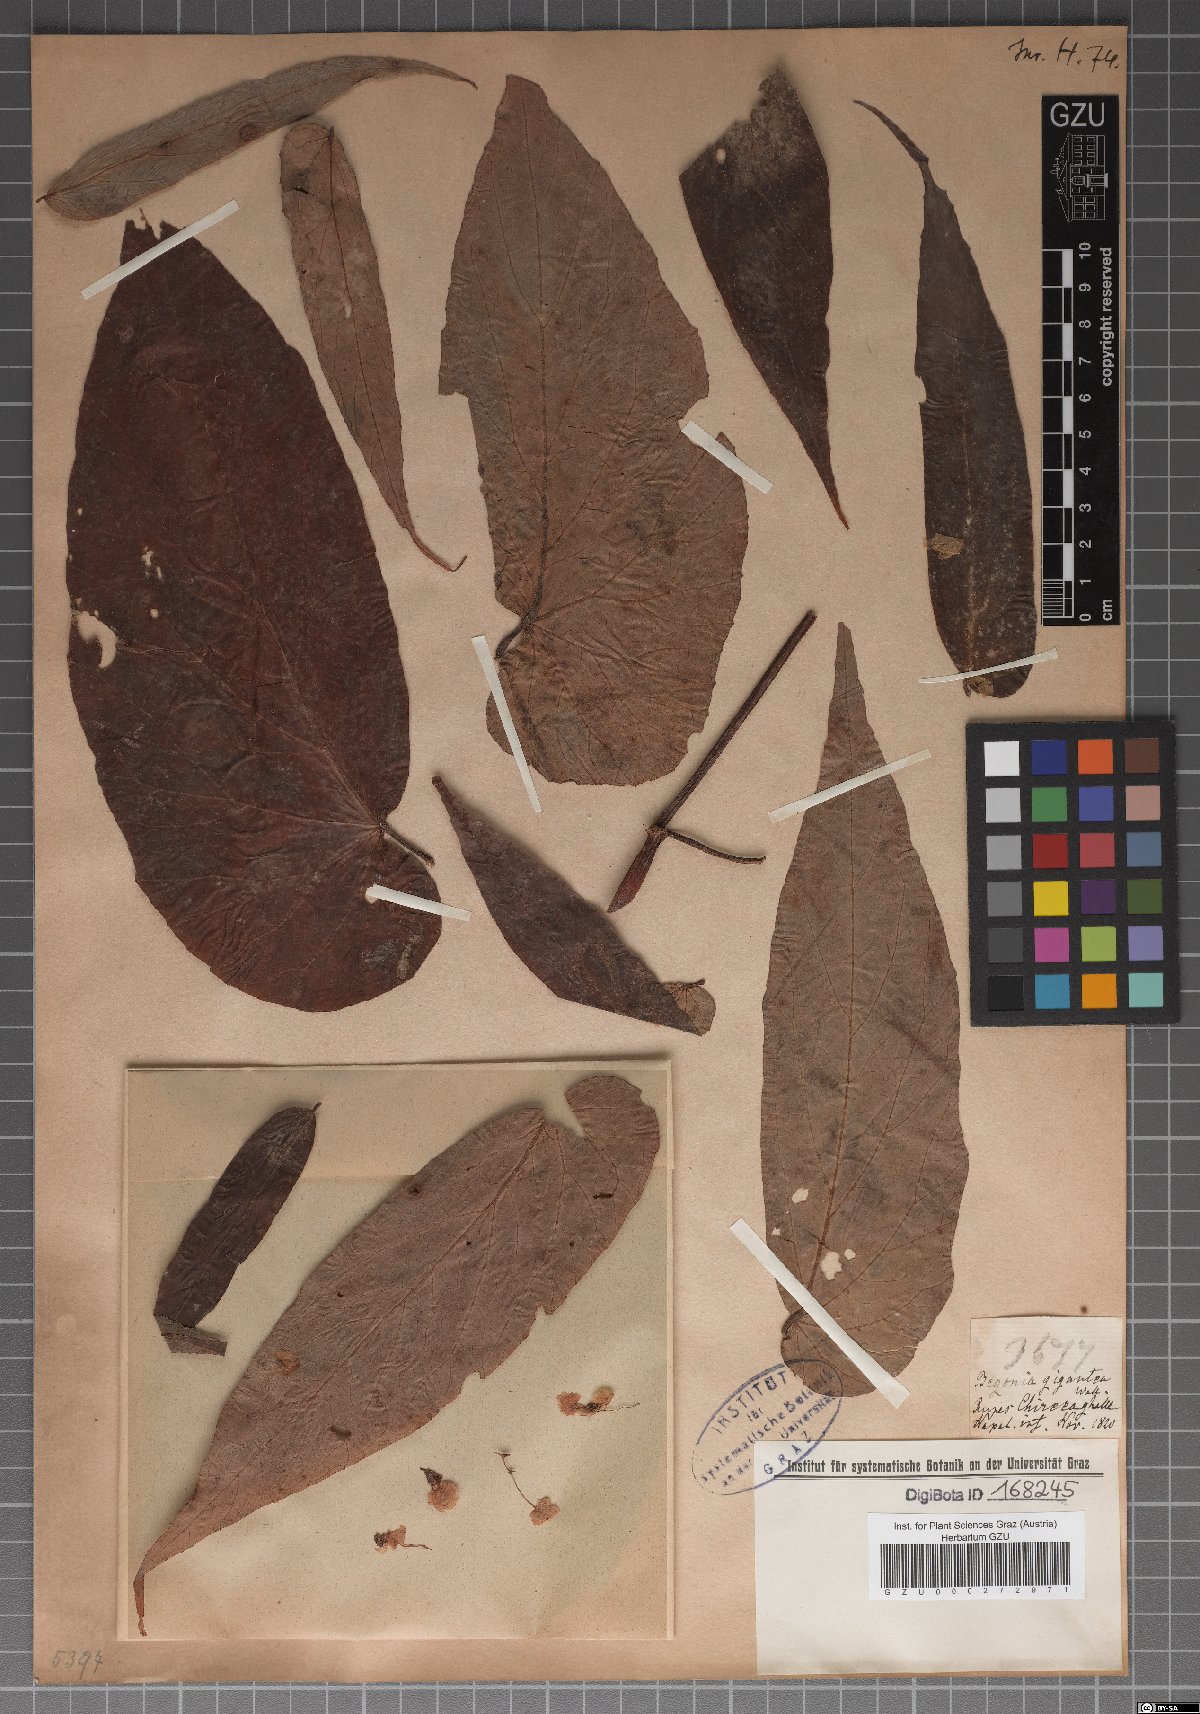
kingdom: Plantae
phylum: Tracheophyta
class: Magnoliopsida
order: Cucurbitales
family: Begoniaceae
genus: Begonia
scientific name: Begonia nepalensis
